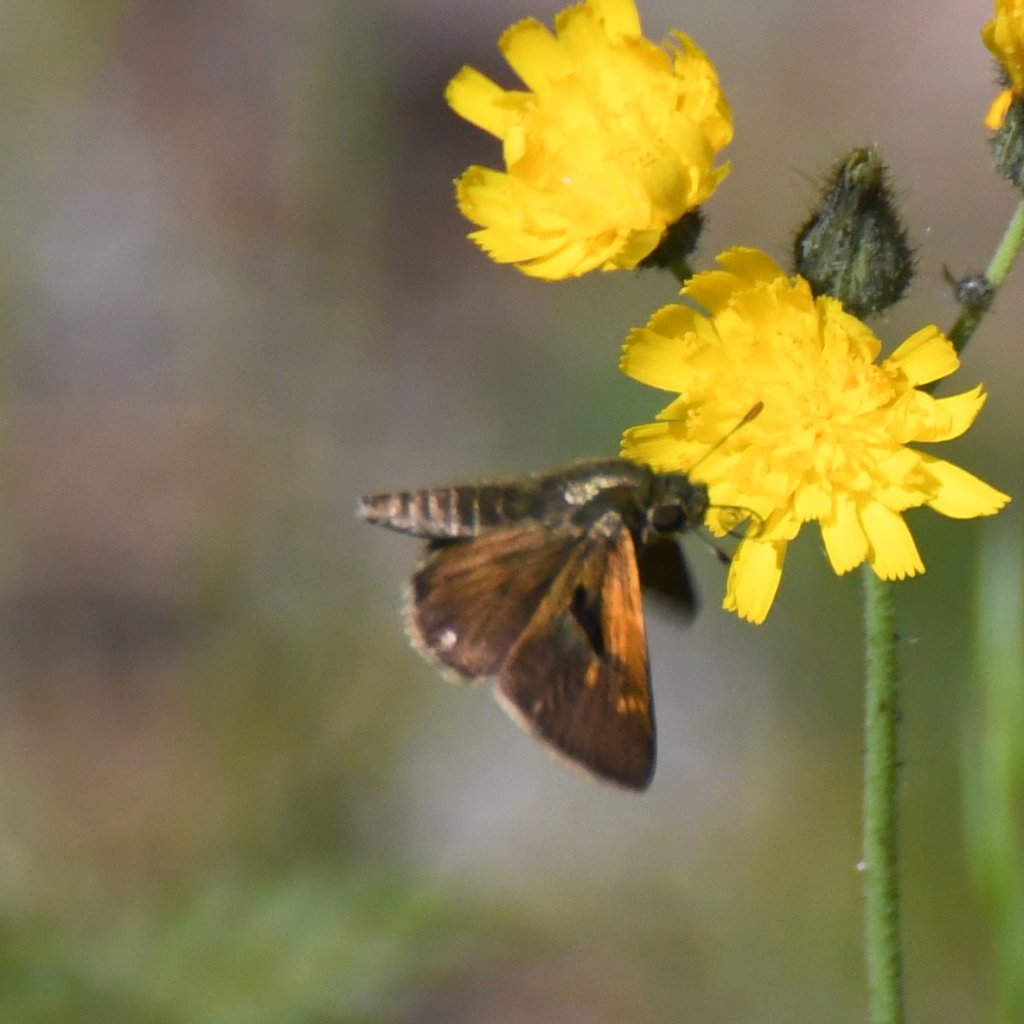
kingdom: Animalia
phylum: Arthropoda
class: Insecta
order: Lepidoptera
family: Hesperiidae
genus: Polites
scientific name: Polites themistocles
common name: Tawny-edged Skipper
